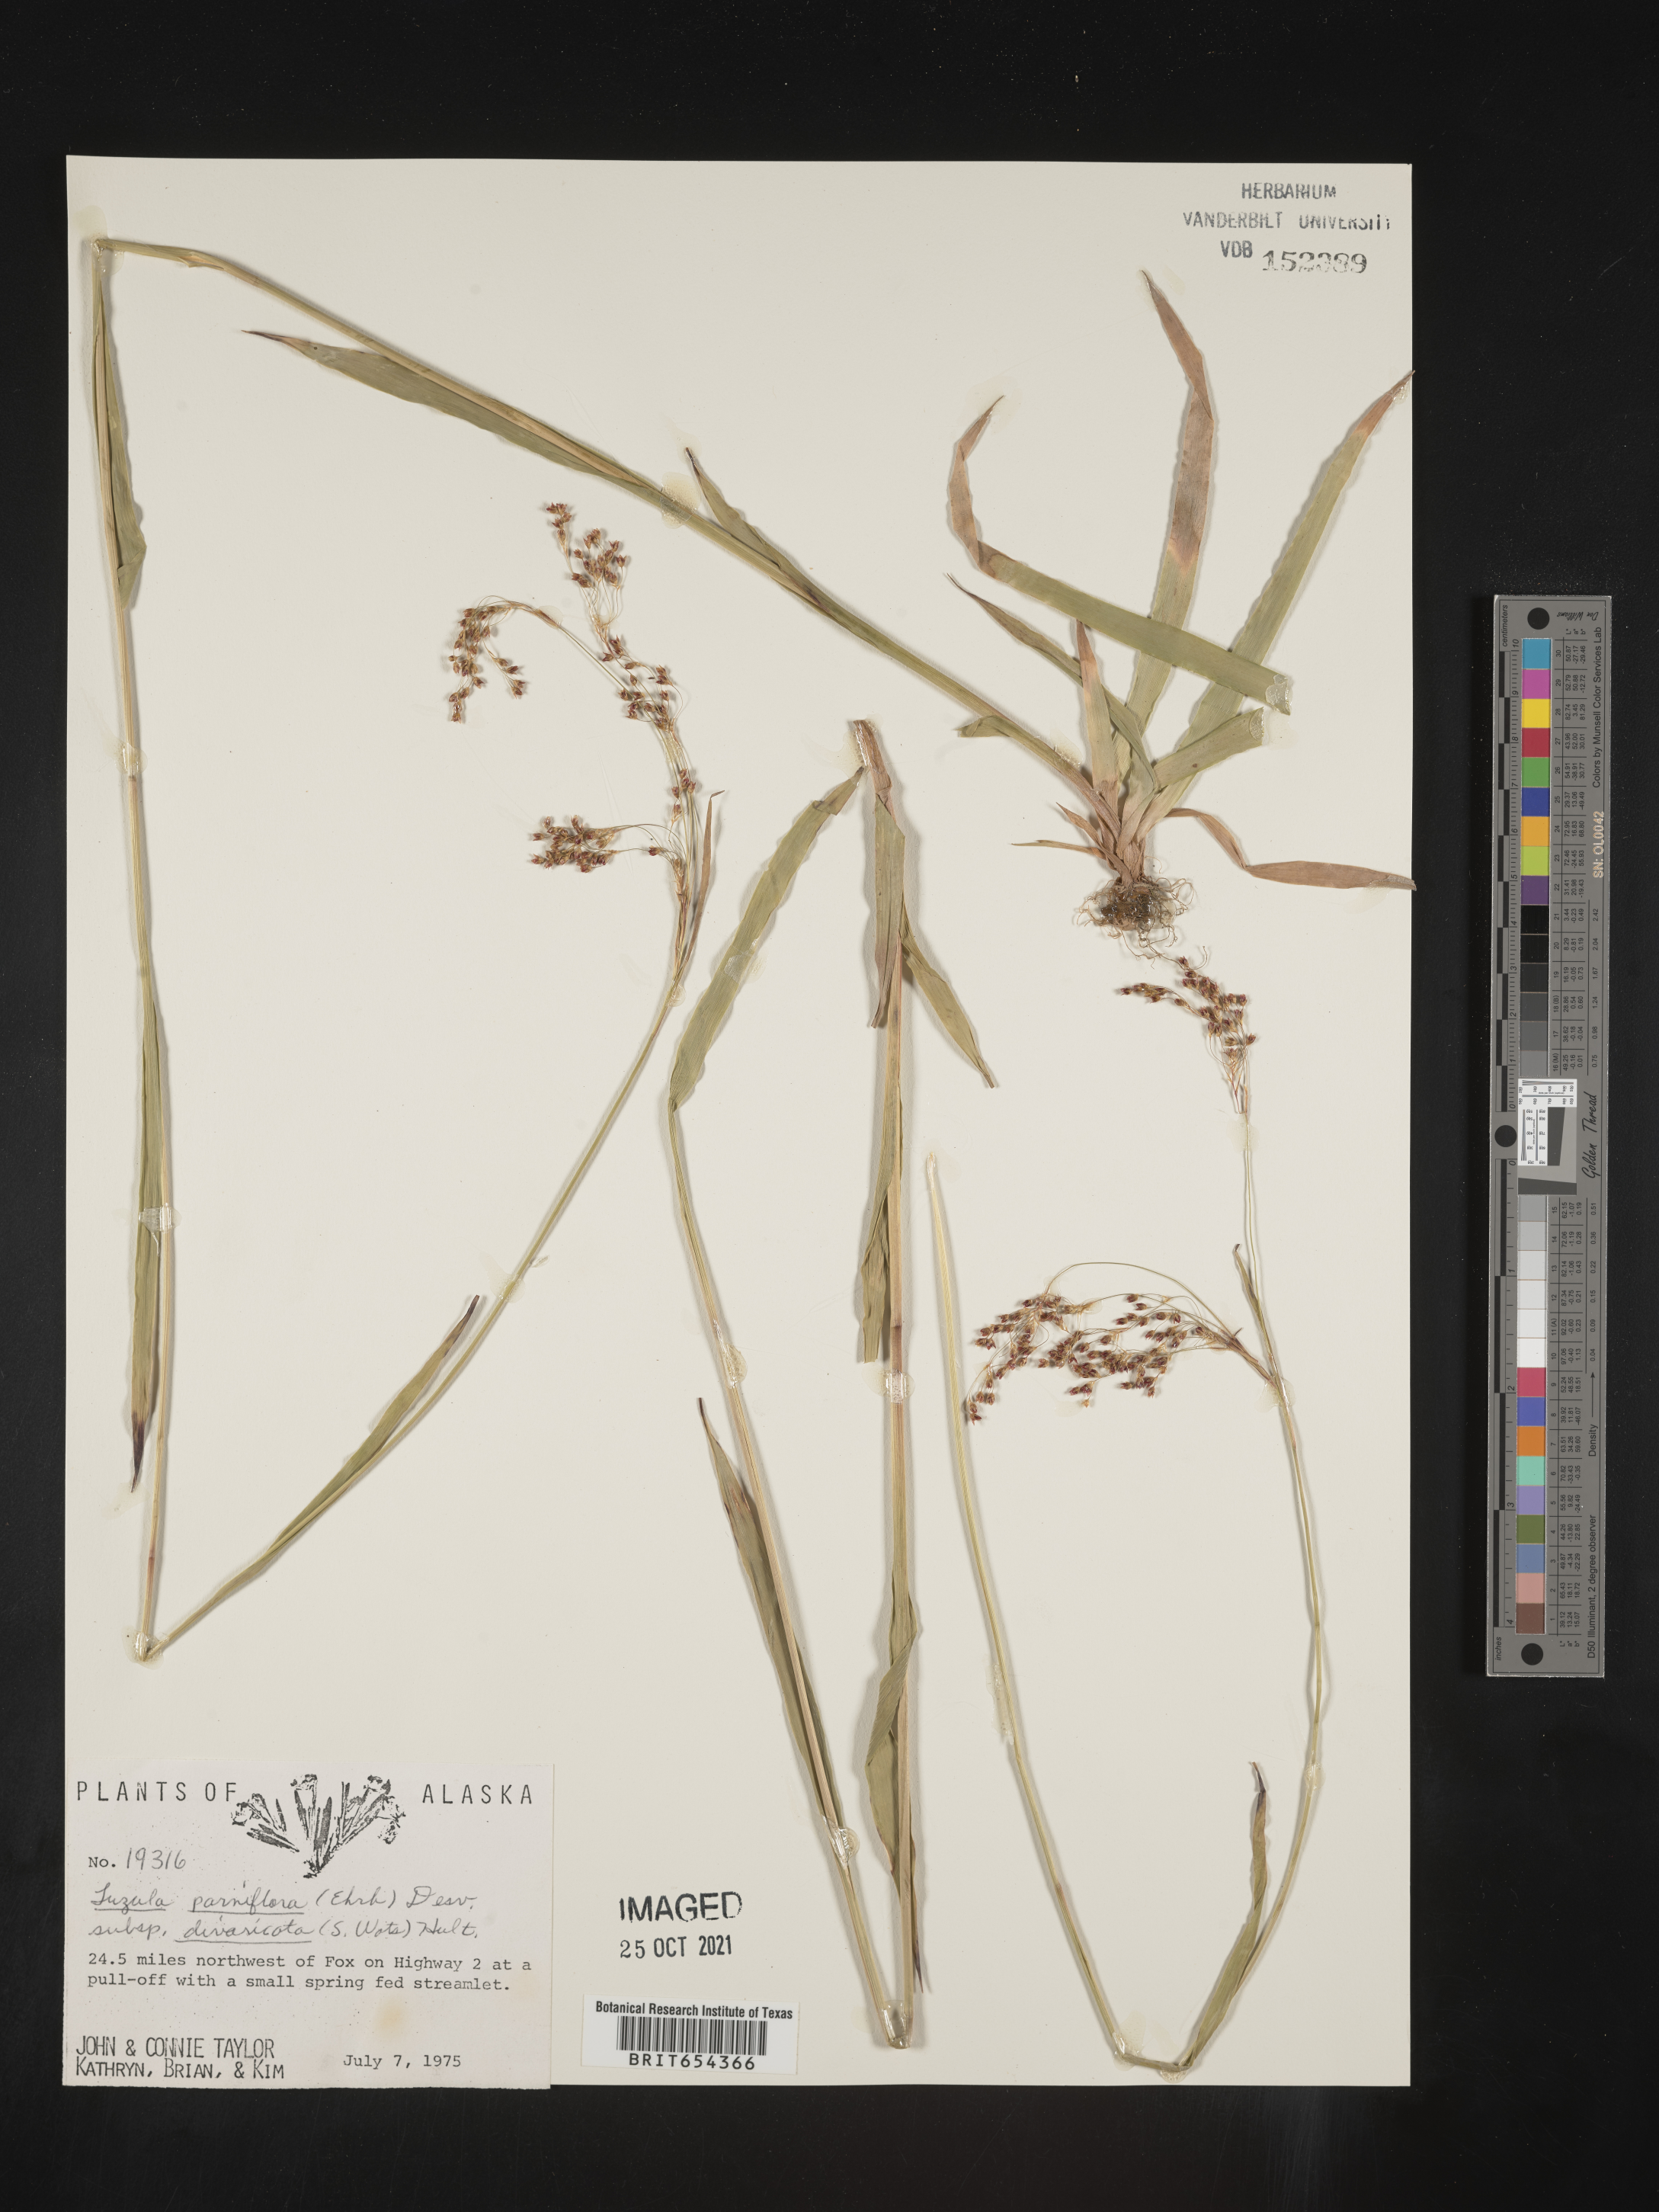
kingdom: Plantae
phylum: Tracheophyta
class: Liliopsida
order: Poales
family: Juncaceae
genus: Luzula
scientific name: Luzula parviflora
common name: Millet woodrush
